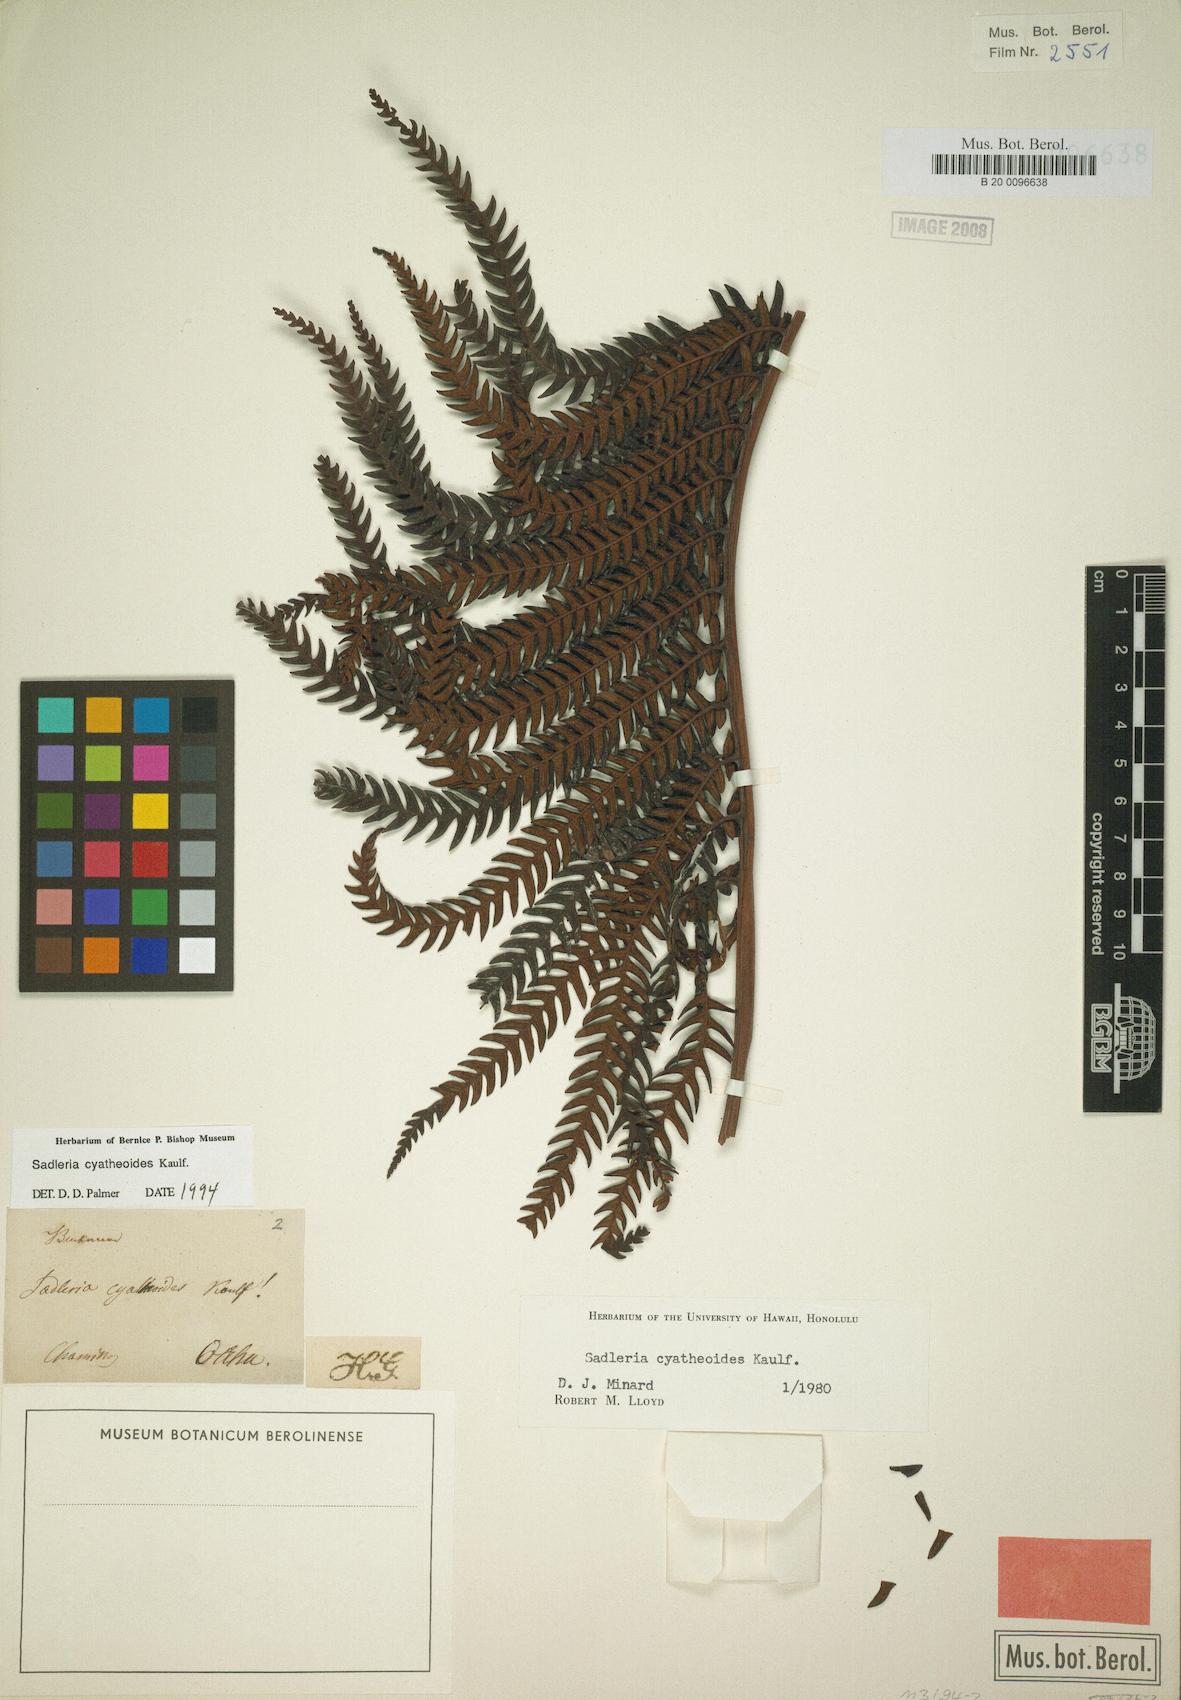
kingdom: Plantae
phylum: Tracheophyta
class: Polypodiopsida
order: Polypodiales
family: Blechnaceae
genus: Sadleria
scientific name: Sadleria cyatheoides
